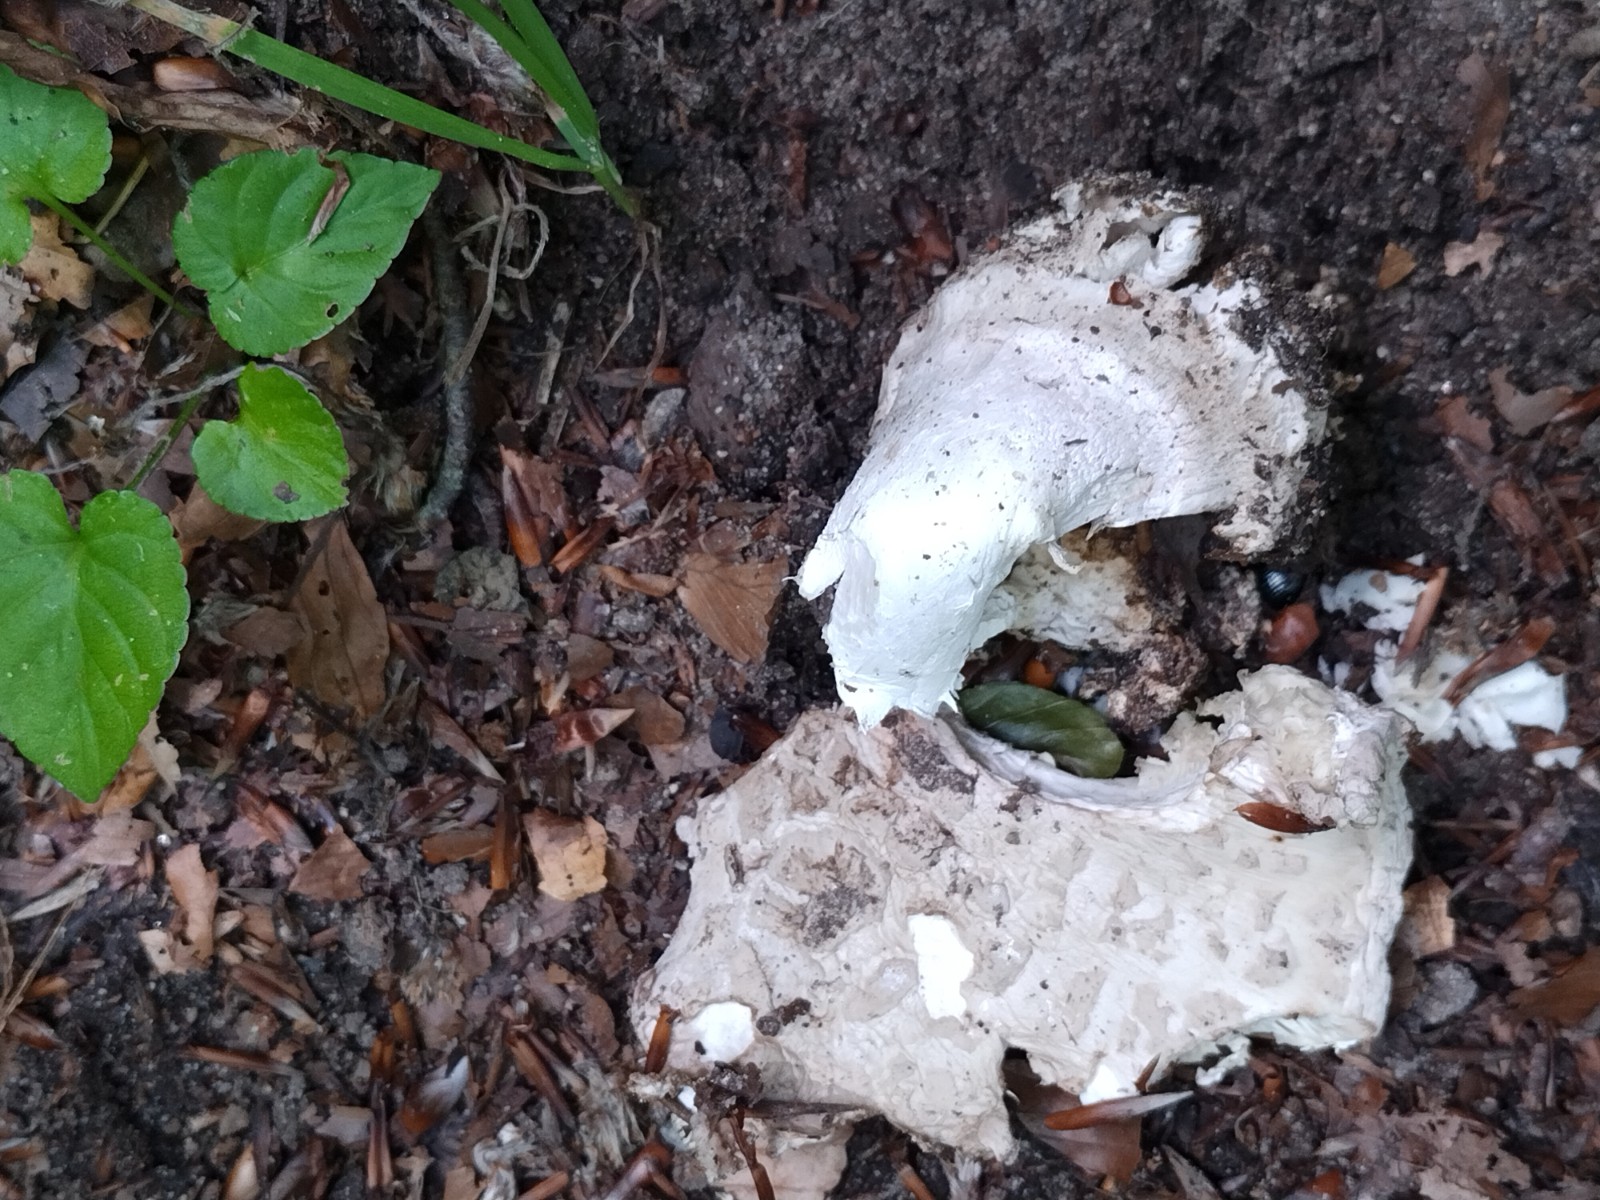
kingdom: Fungi
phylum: Basidiomycota
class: Agaricomycetes
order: Agaricales
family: Amanitaceae
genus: Amanita
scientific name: Amanita
